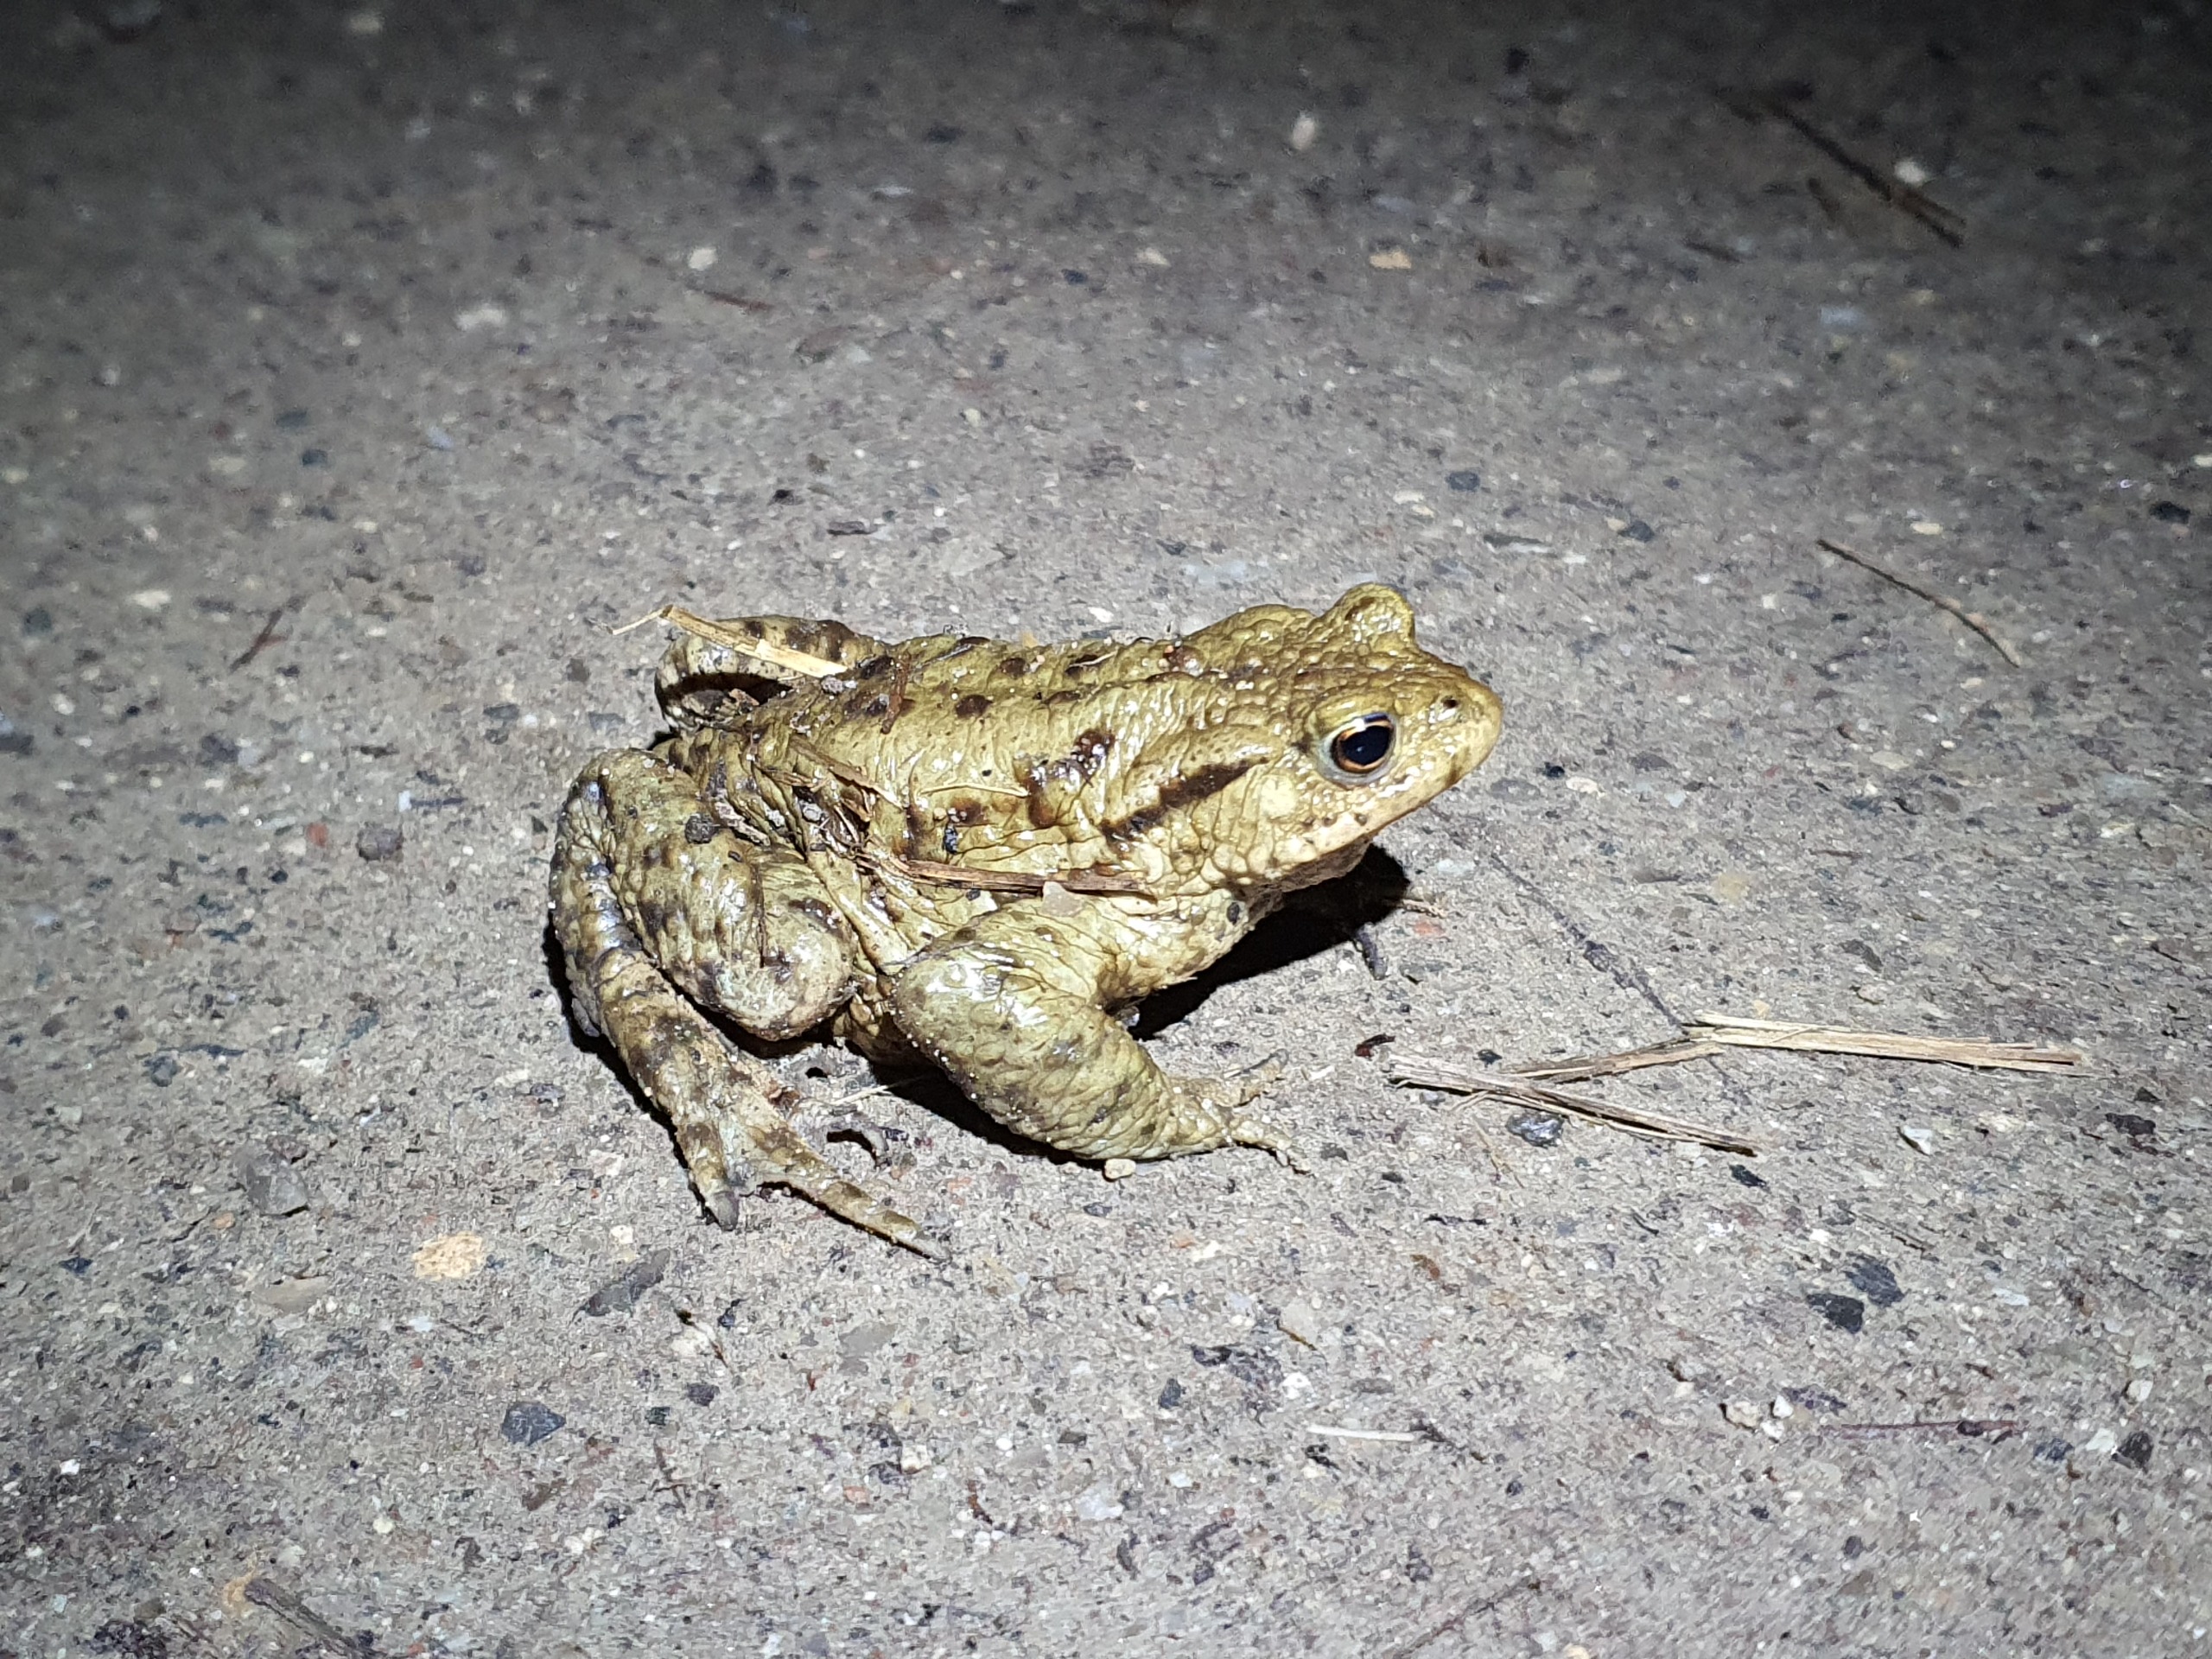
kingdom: Animalia
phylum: Chordata
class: Amphibia
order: Anura
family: Bufonidae
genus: Bufo
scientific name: Bufo bufo
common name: Skrubtudse
